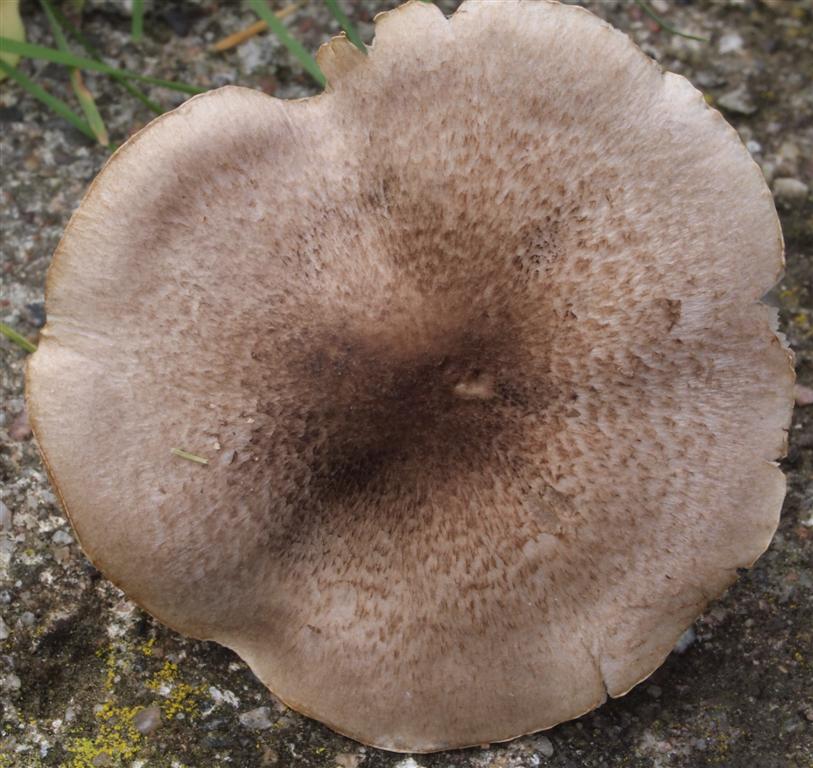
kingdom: Fungi
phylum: Basidiomycota
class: Agaricomycetes
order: Agaricales
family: Tricholomataceae
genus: Tricholoma
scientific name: Tricholoma scalpturatum
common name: gulplettet ridderhat
